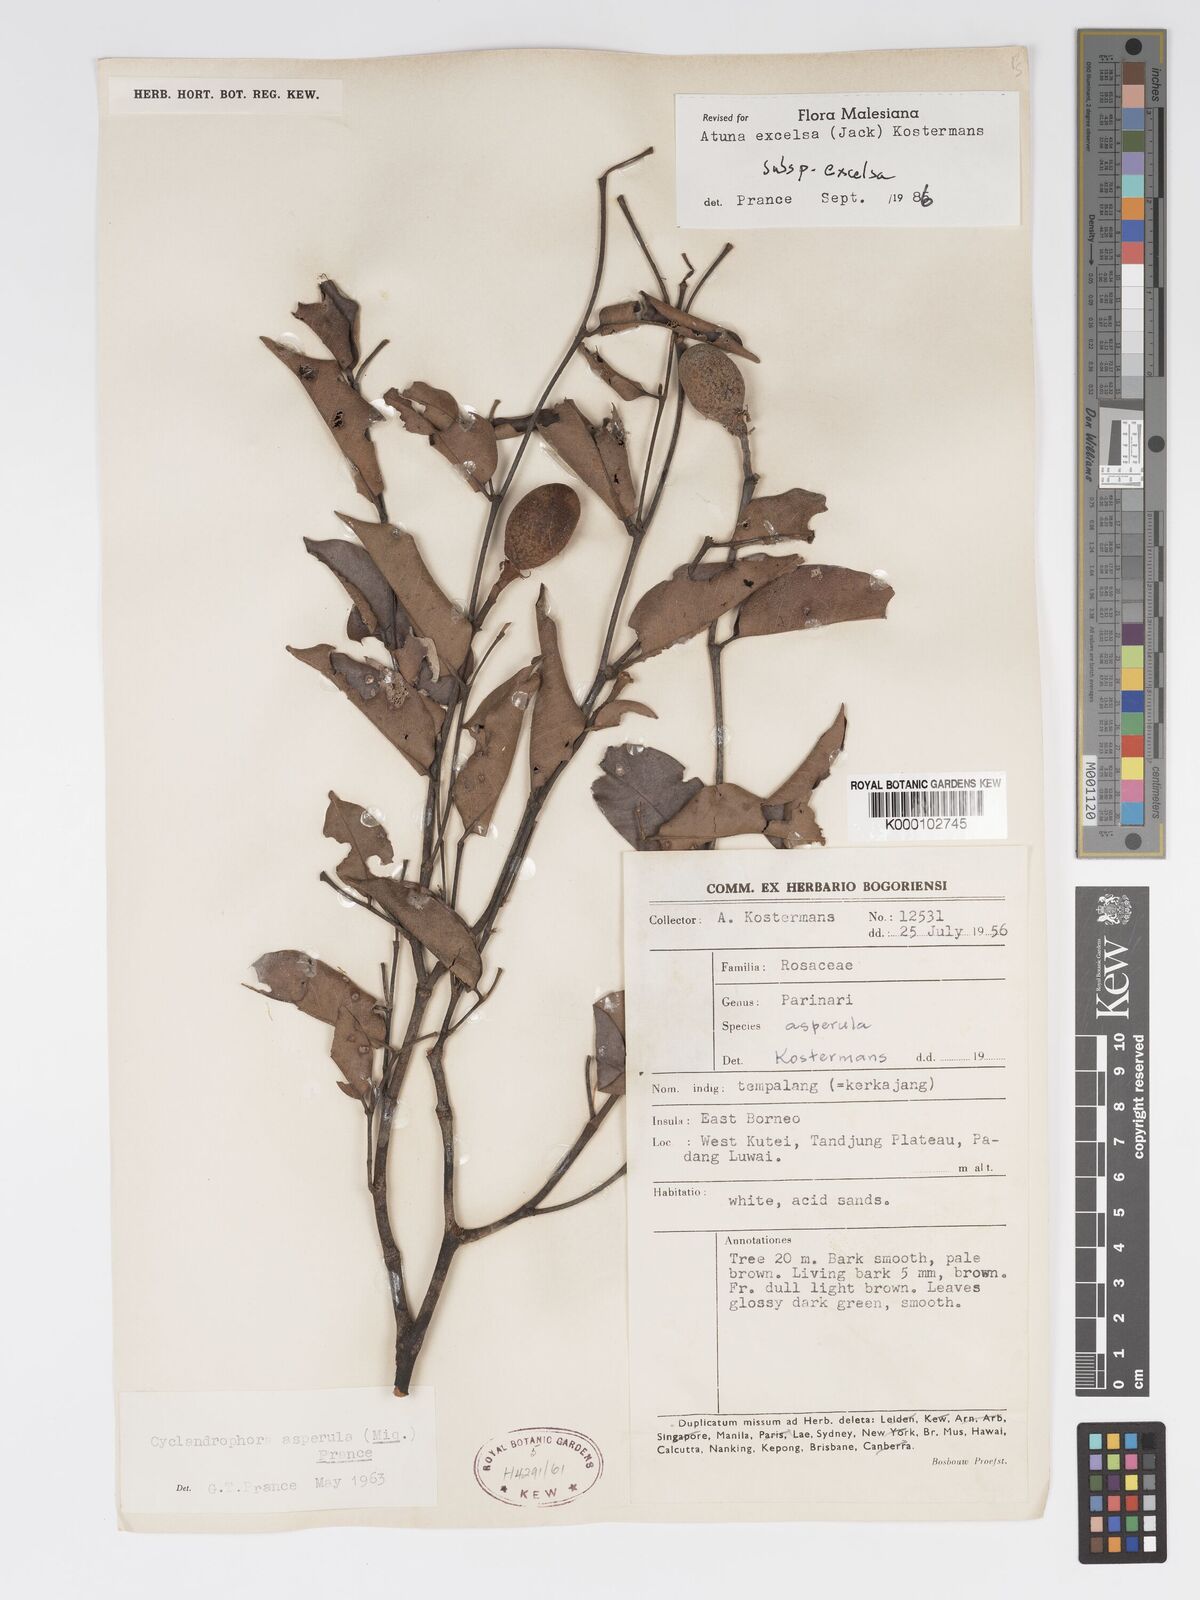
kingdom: Plantae
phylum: Tracheophyta
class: Magnoliopsida
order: Malpighiales
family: Chrysobalanaceae
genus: Atuna
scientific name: Atuna excelsa
